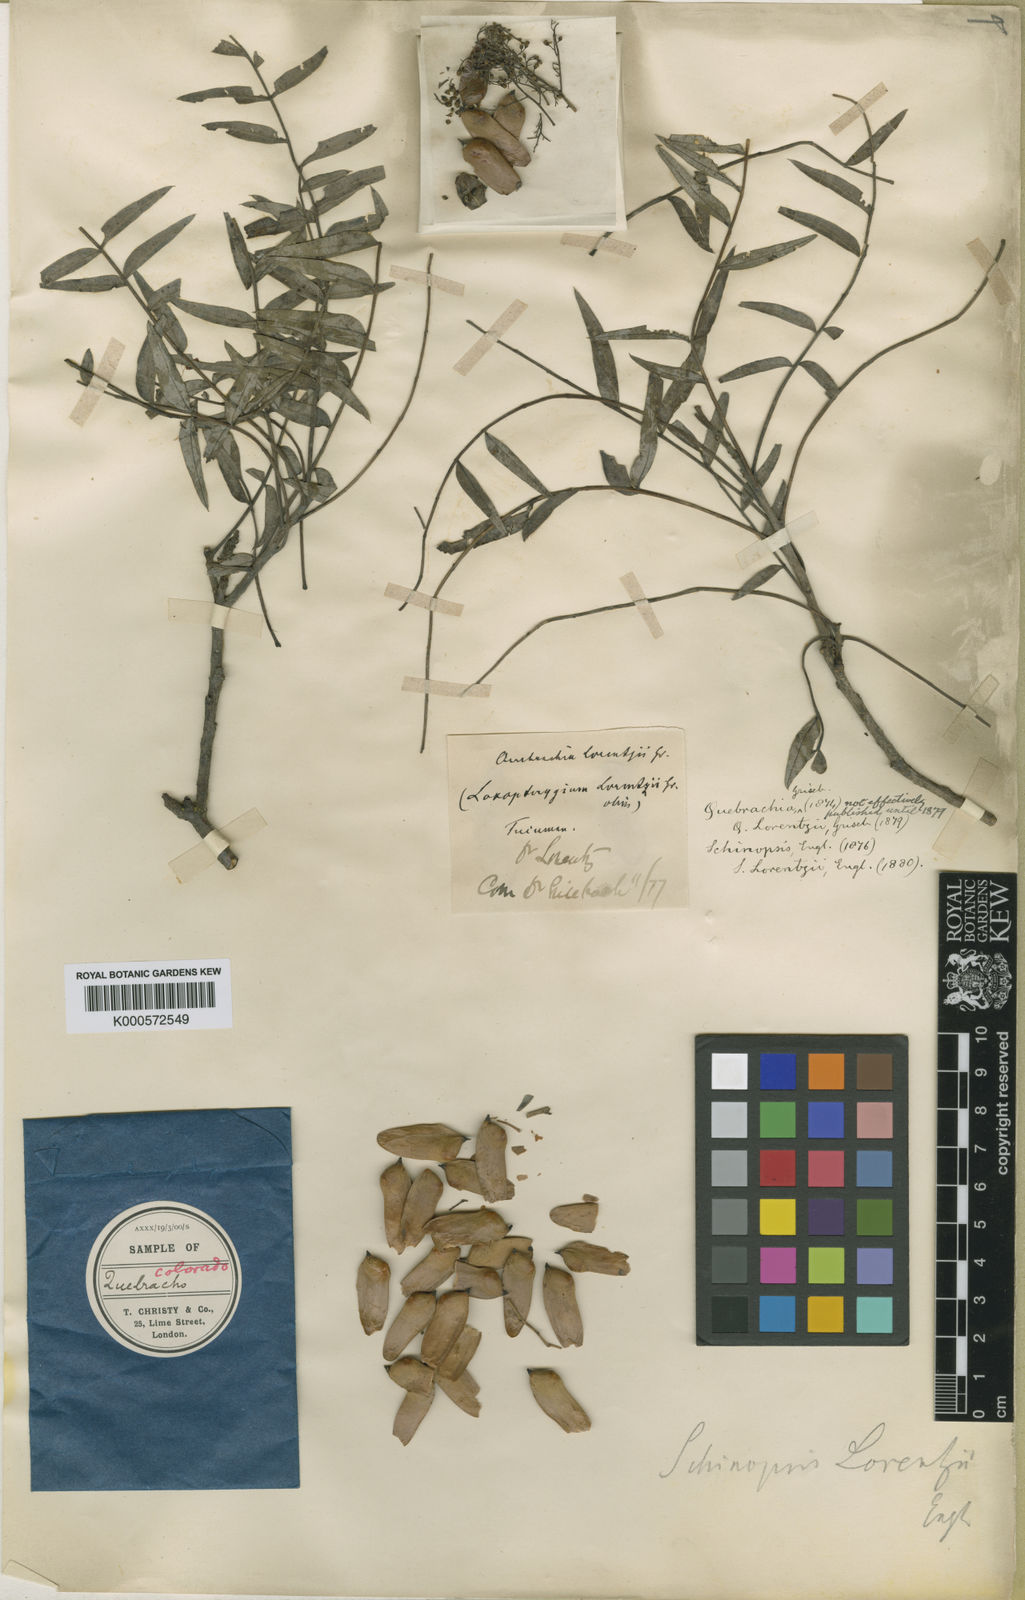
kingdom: Plantae
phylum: Tracheophyta
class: Magnoliopsida
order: Sapindales
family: Anacardiaceae
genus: Schinopsis
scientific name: Schinopsis lorentzii
